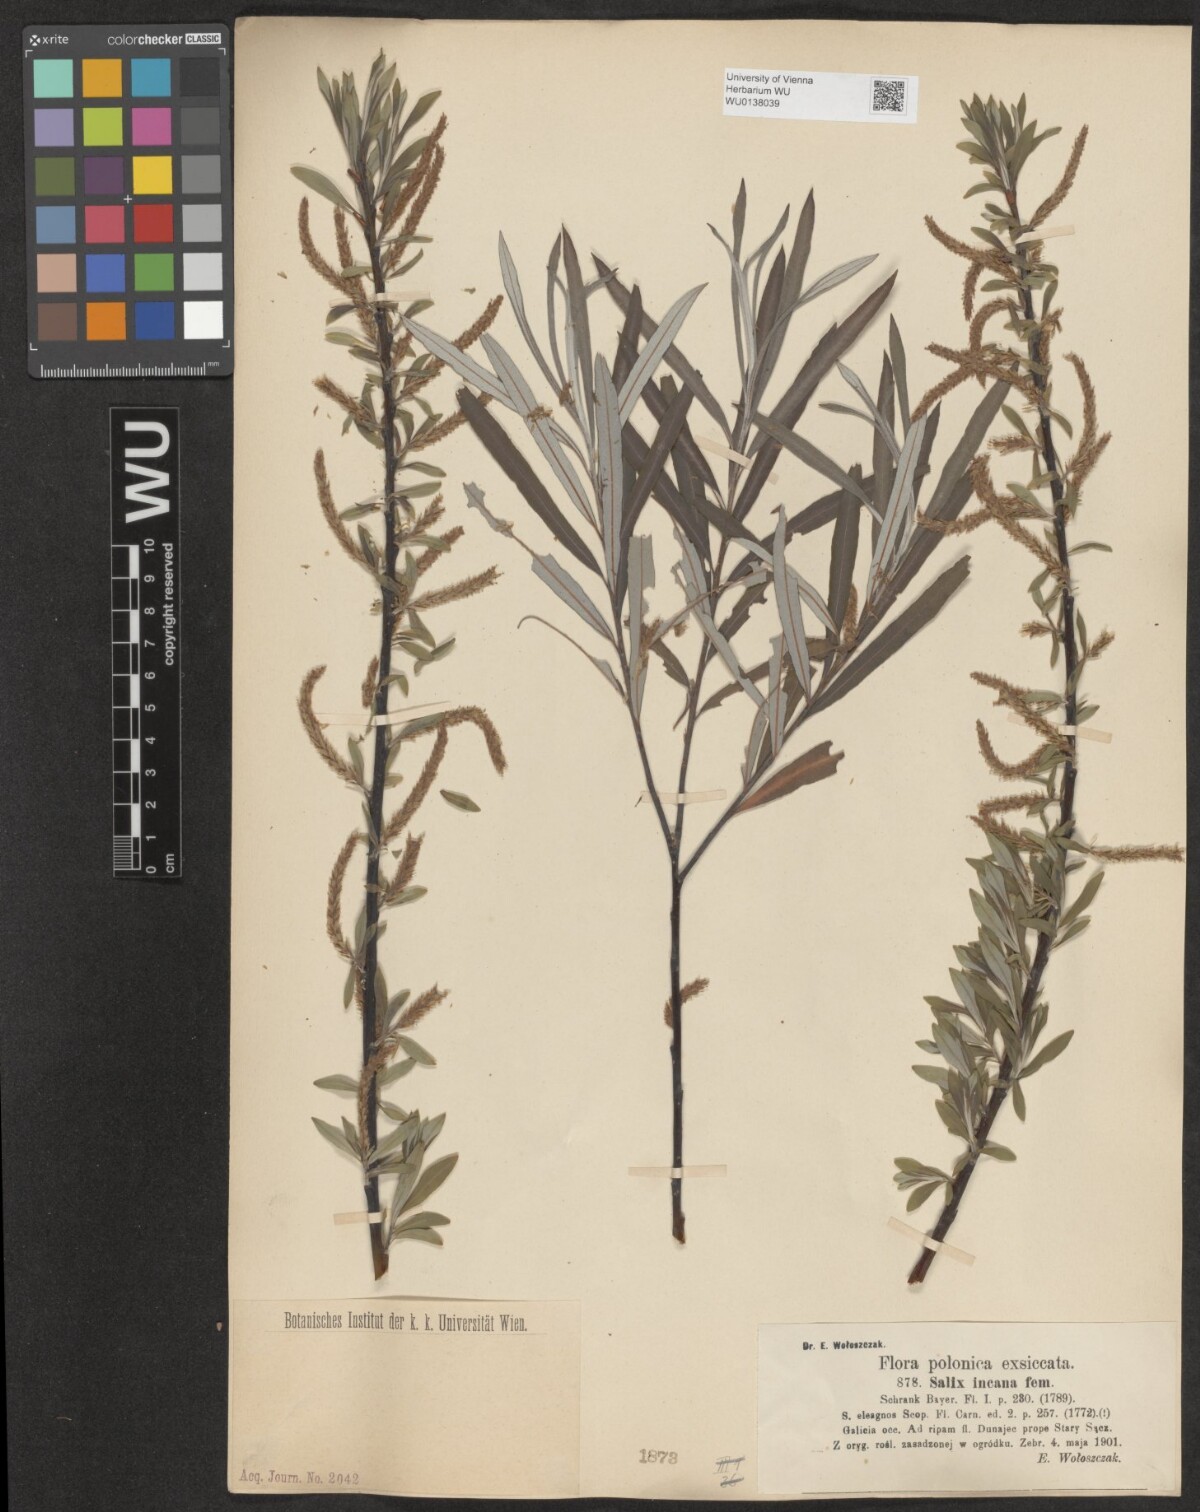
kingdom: Plantae
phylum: Tracheophyta
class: Magnoliopsida
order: Malpighiales
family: Salicaceae
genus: Salix
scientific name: Salix eleagnos
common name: Elaeagnus willow
